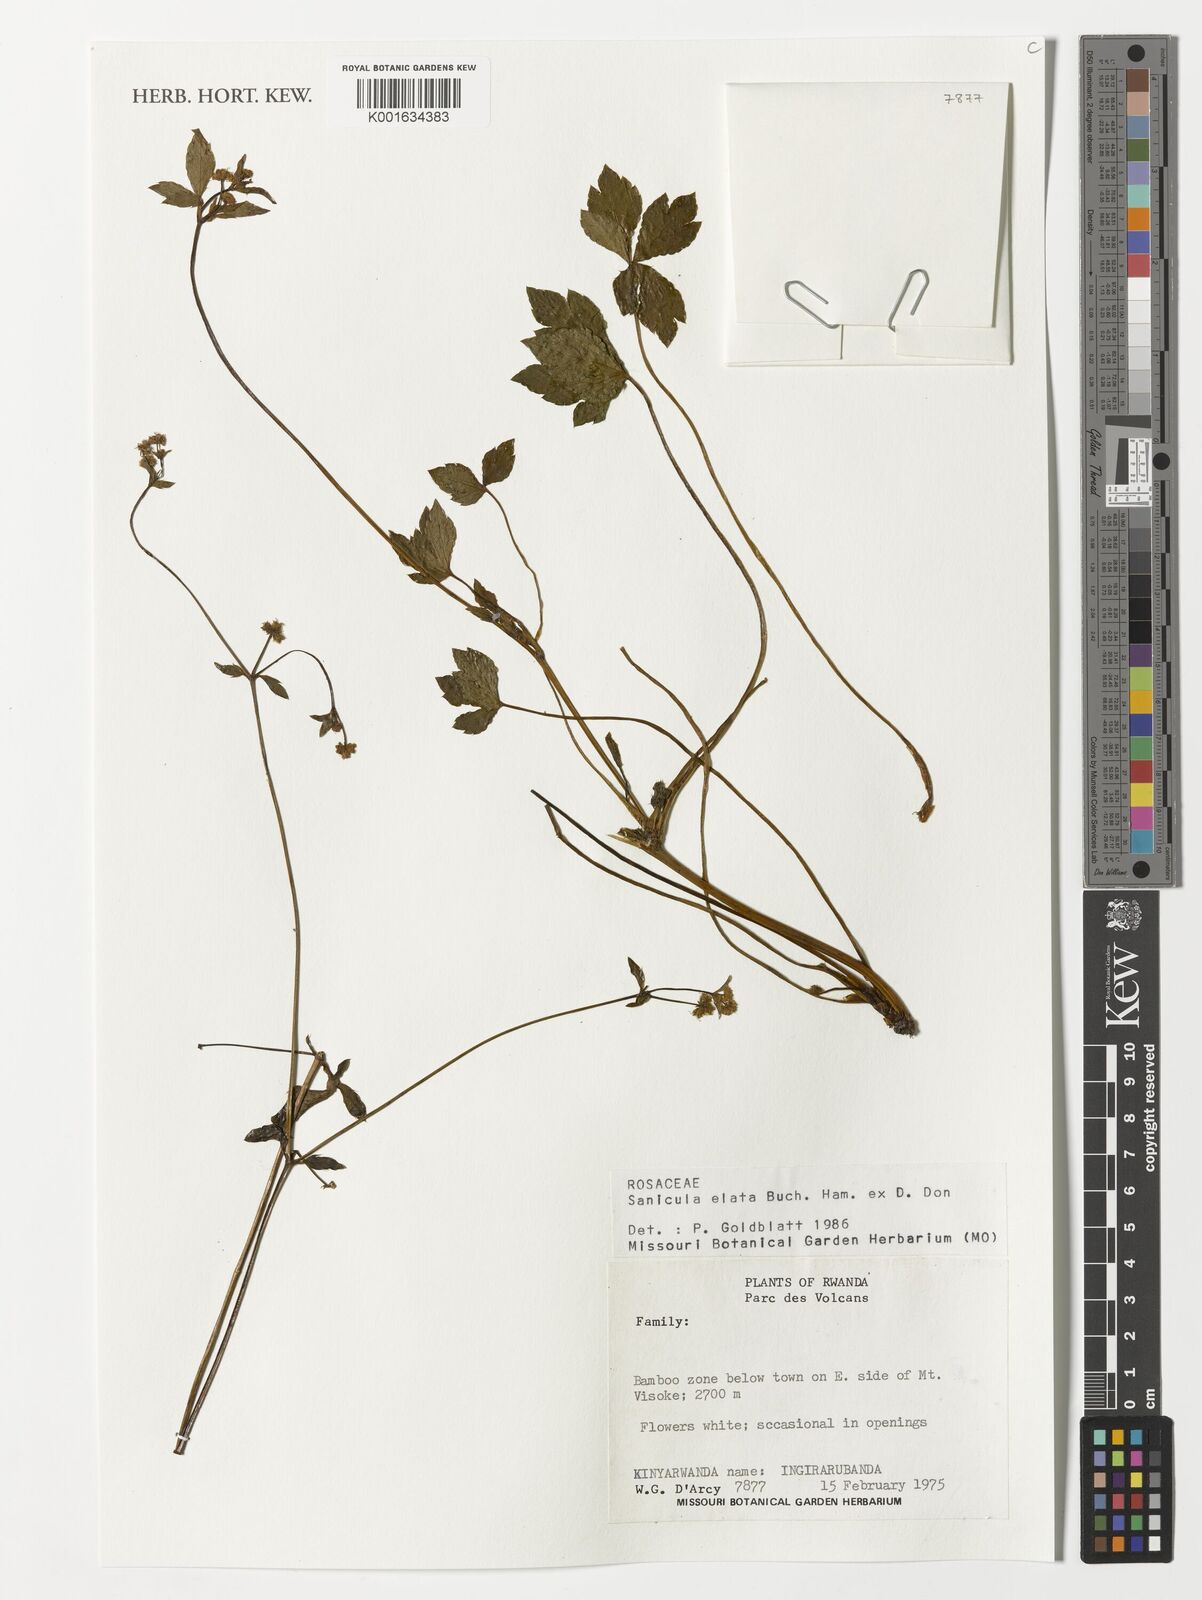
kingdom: Plantae
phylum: Tracheophyta
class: Magnoliopsida
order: Apiales
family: Apiaceae
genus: Sanicula
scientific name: Sanicula elata
